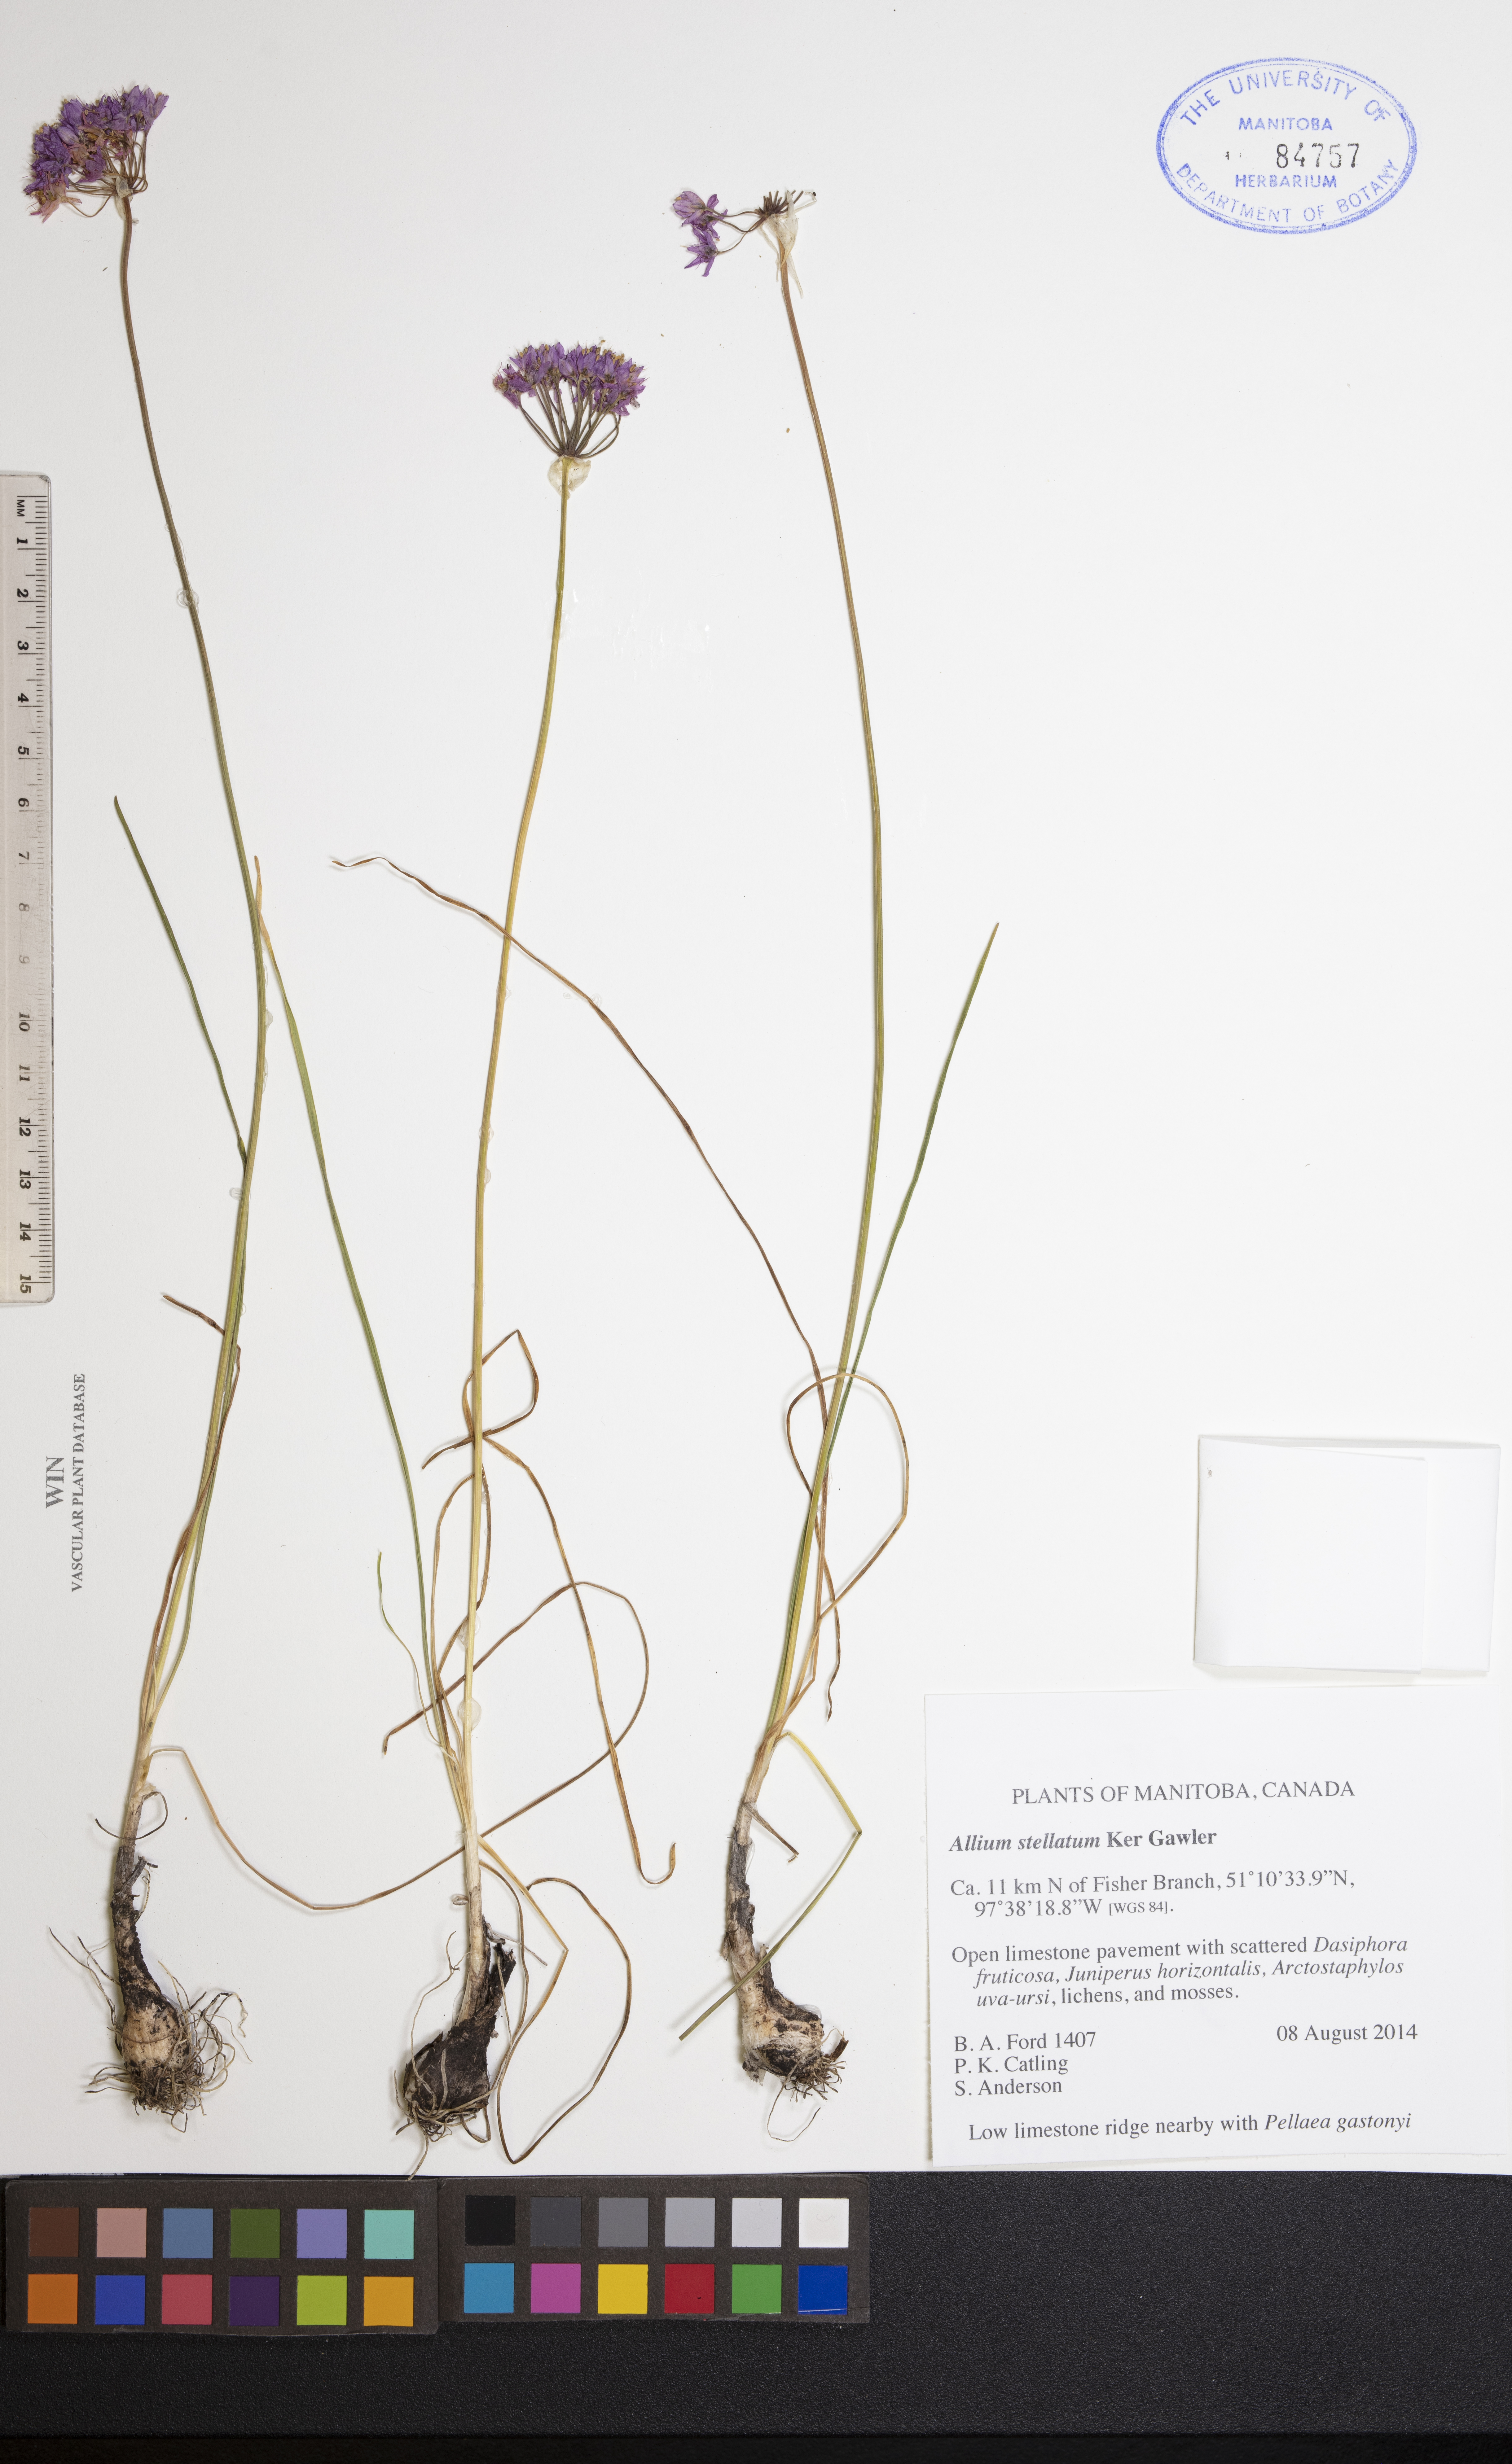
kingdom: Plantae
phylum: Tracheophyta
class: Liliopsida
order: Asparagales
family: Amaryllidaceae
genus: Allium
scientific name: Allium stellatum
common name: Autumn onion
